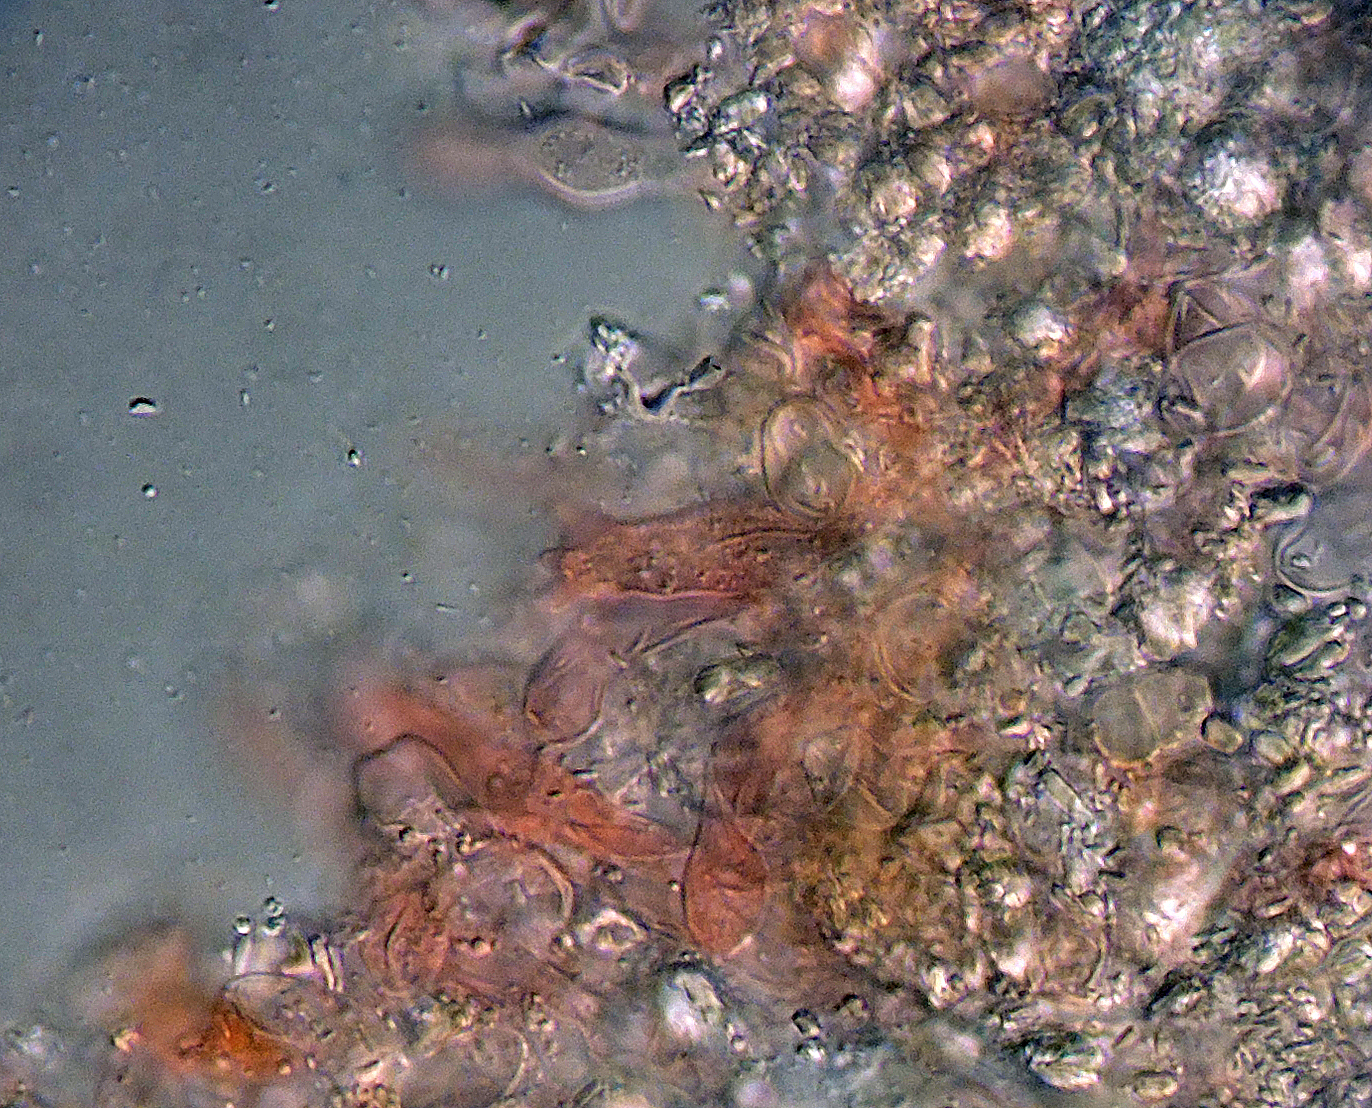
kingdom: Fungi
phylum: Basidiomycota
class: Agaricomycetes
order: Agaricales
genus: Dendrothele
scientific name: Dendrothele pachysterigmata
